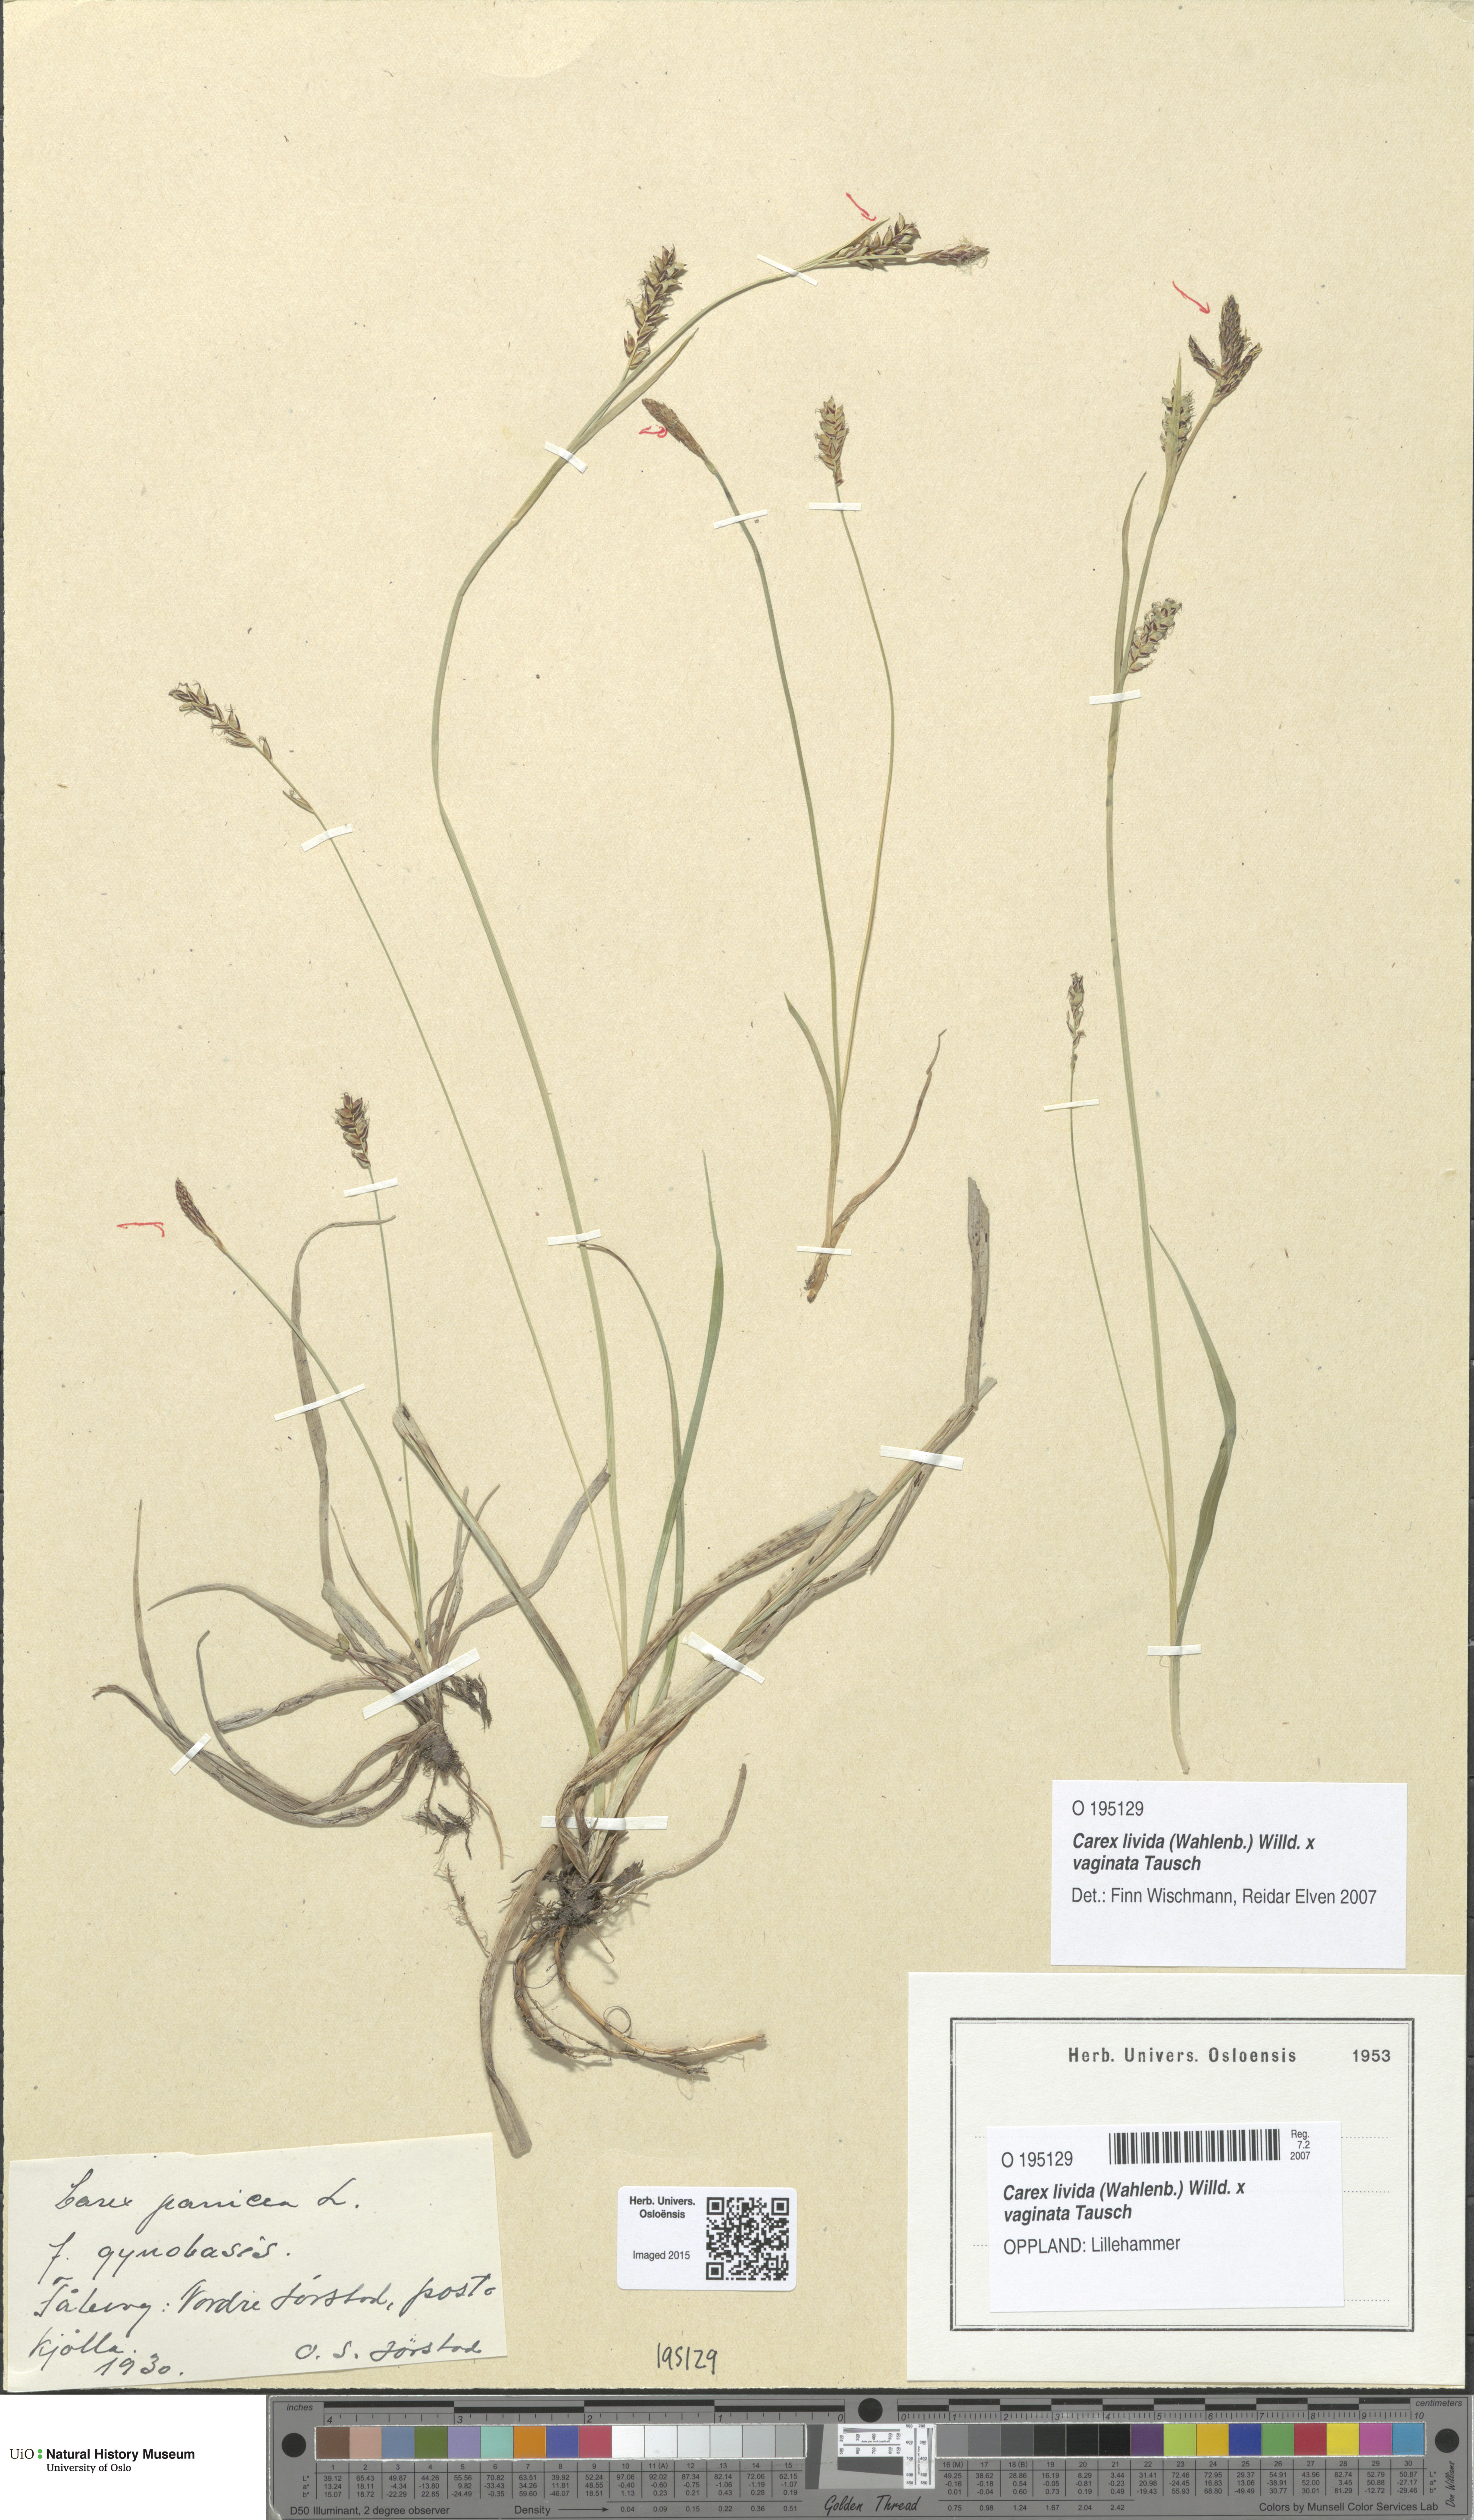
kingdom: Plantae
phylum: Tracheophyta
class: Liliopsida
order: Poales
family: Cyperaceae
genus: Carex
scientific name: Carex
